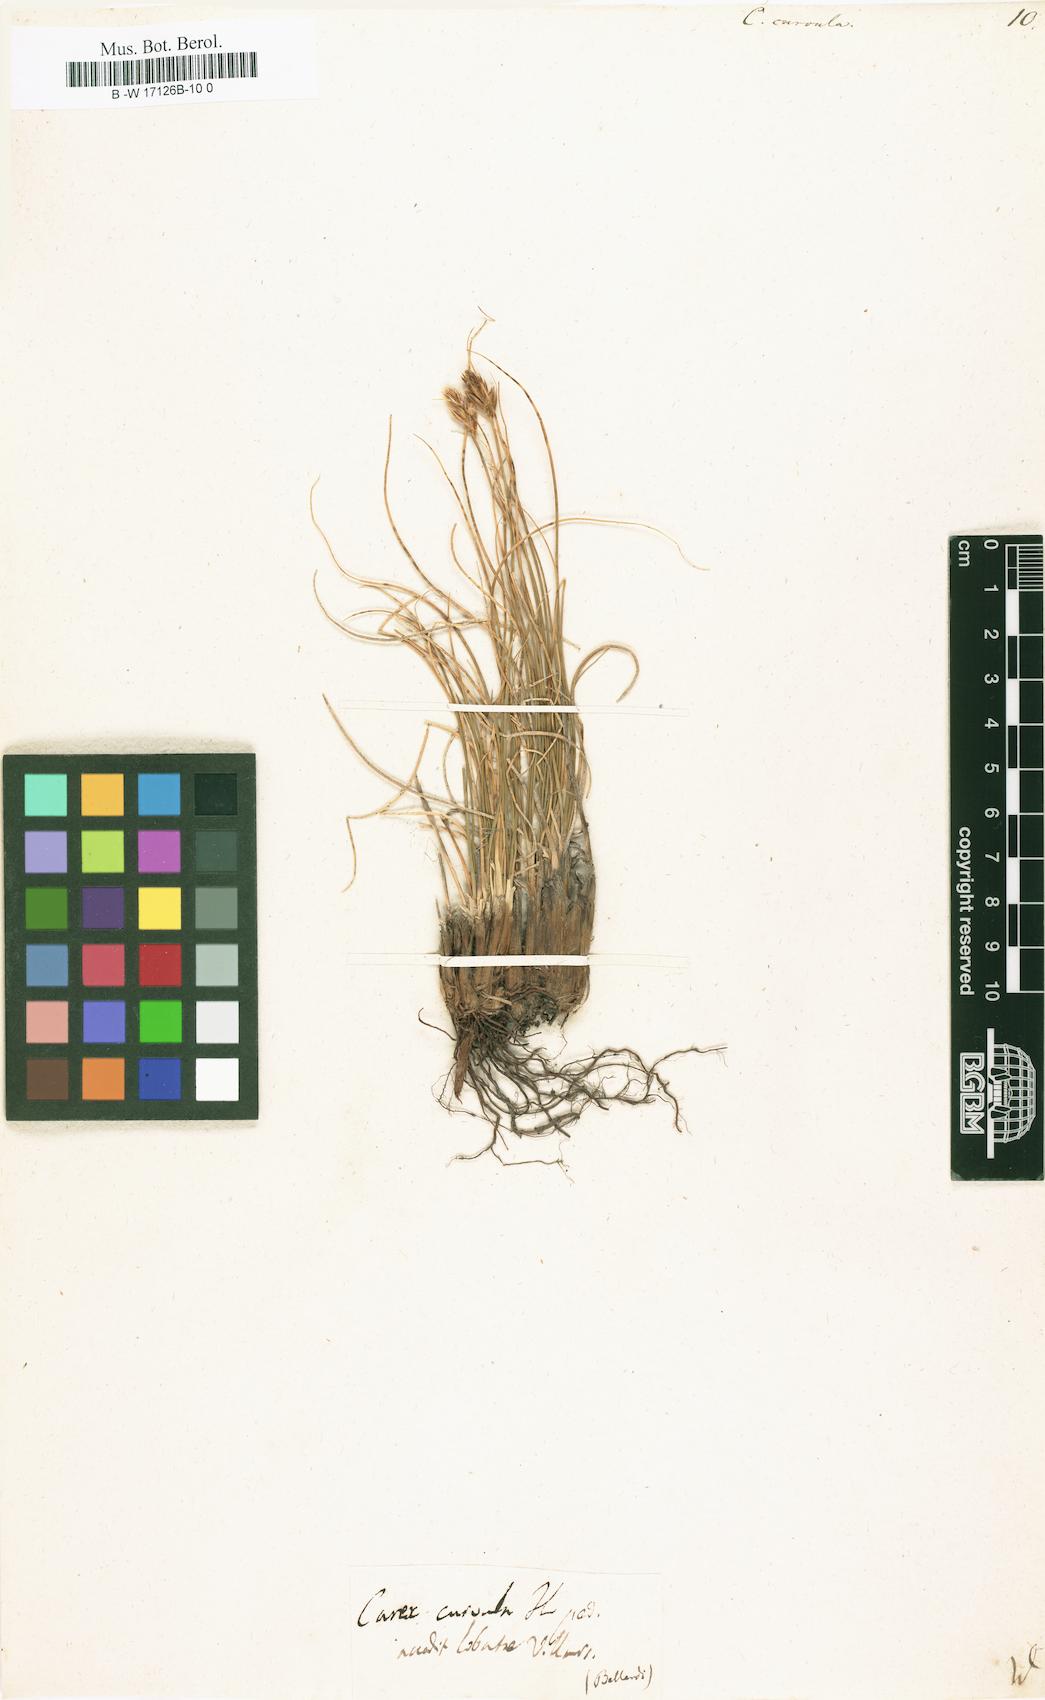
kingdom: Plantae
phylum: Tracheophyta
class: Liliopsida
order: Poales
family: Cyperaceae
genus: Carex
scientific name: Carex curvula
